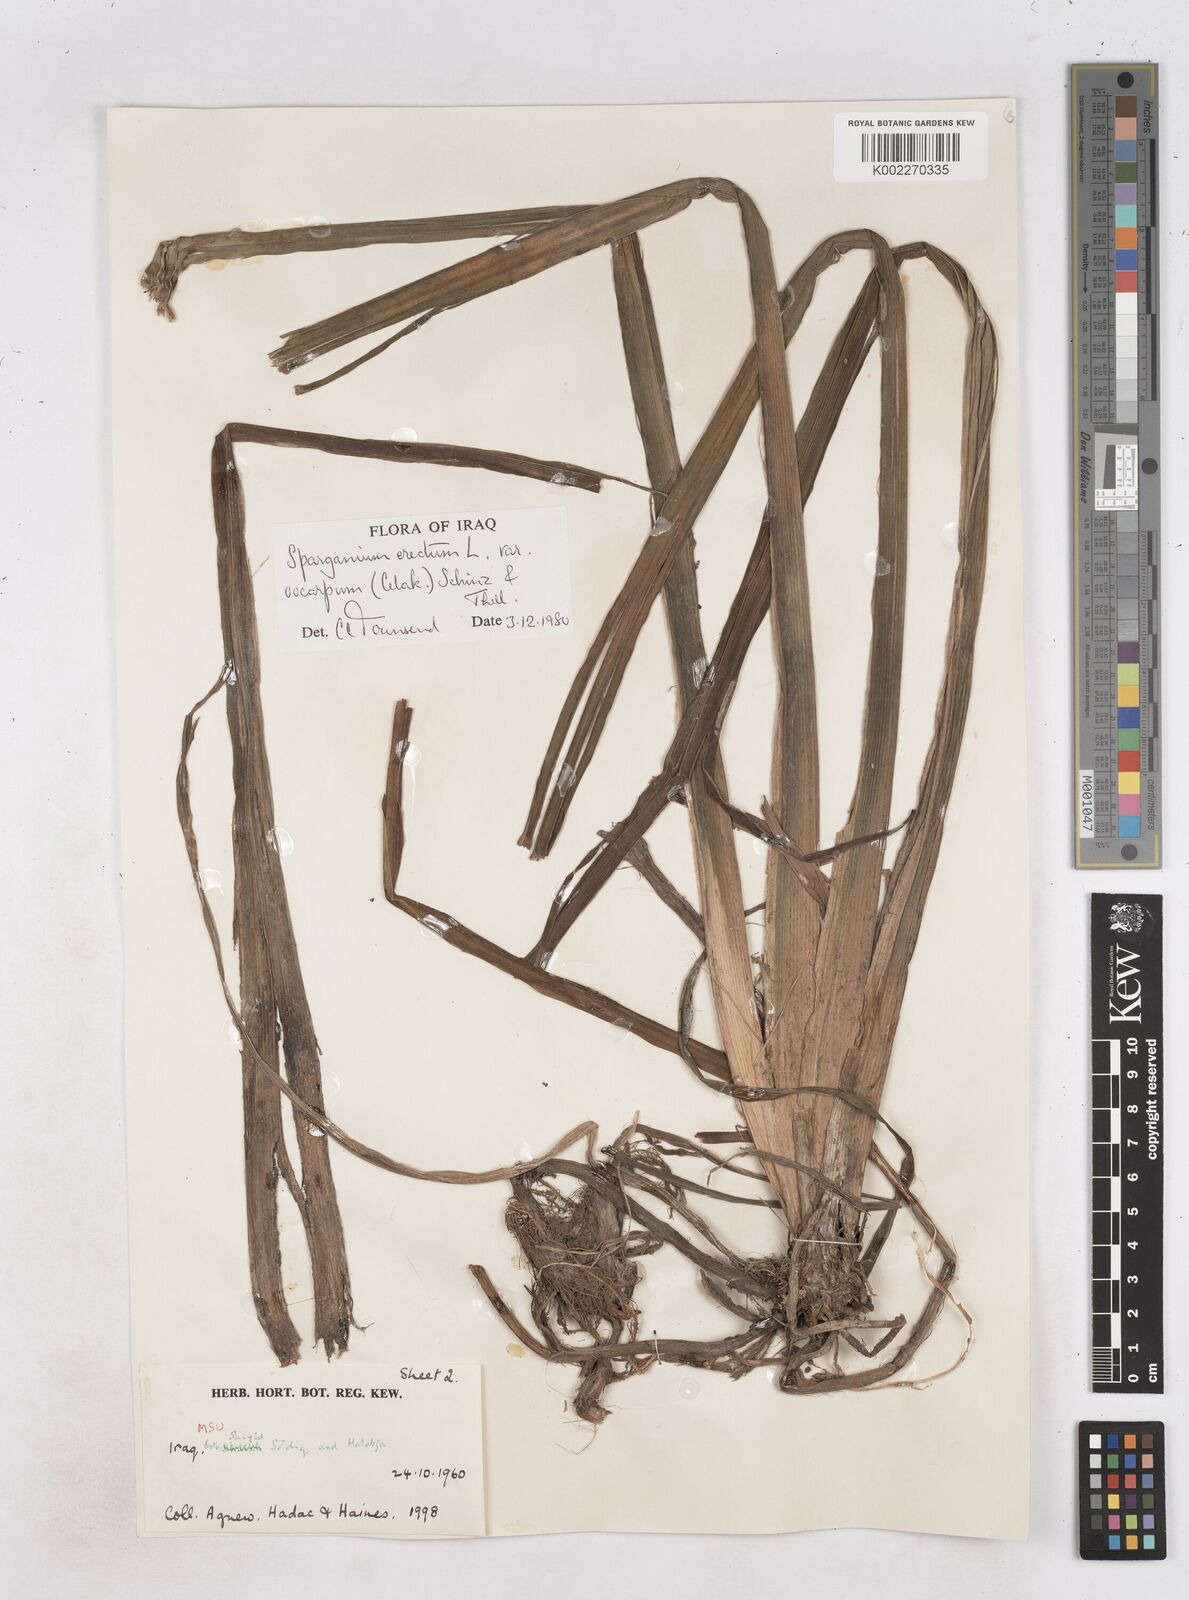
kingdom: Plantae
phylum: Tracheophyta
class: Liliopsida
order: Poales
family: Typhaceae
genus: Sparganium
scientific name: Sparganium erectum
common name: Branched bur-reed
